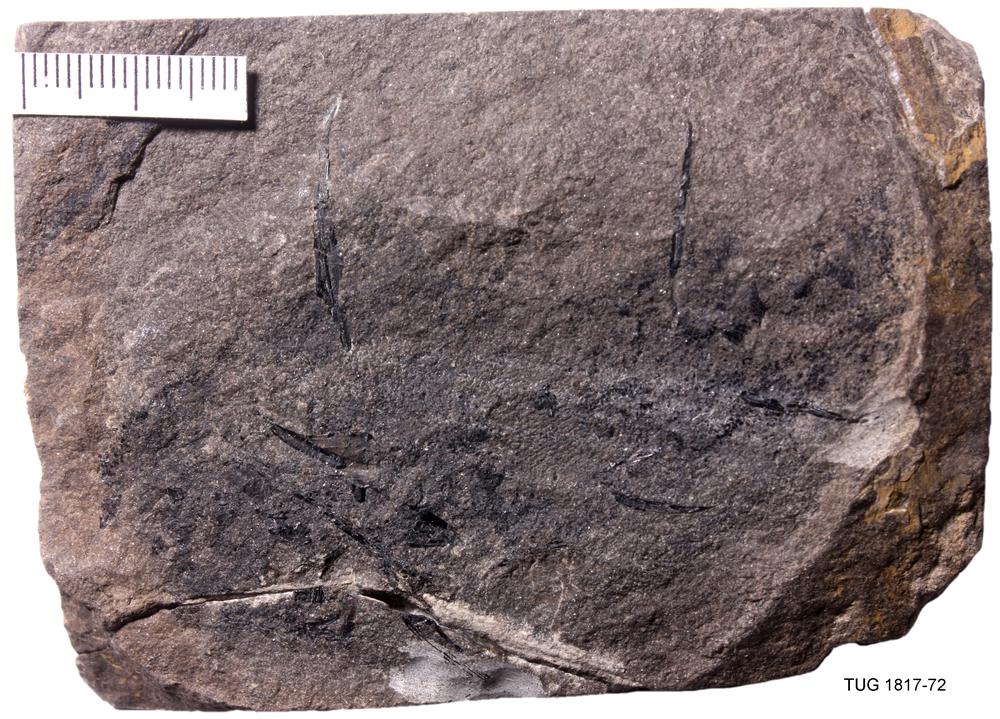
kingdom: Animalia
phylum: Chordata
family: Diplacanthidae
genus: Diplacanthus
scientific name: Diplacanthus crassisimus
